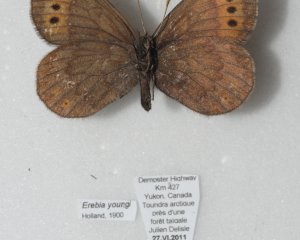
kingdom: Animalia
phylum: Arthropoda
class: Insecta
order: Lepidoptera
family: Nymphalidae
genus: Erebia
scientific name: Erebia youngi
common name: Four-dotted Alpine
